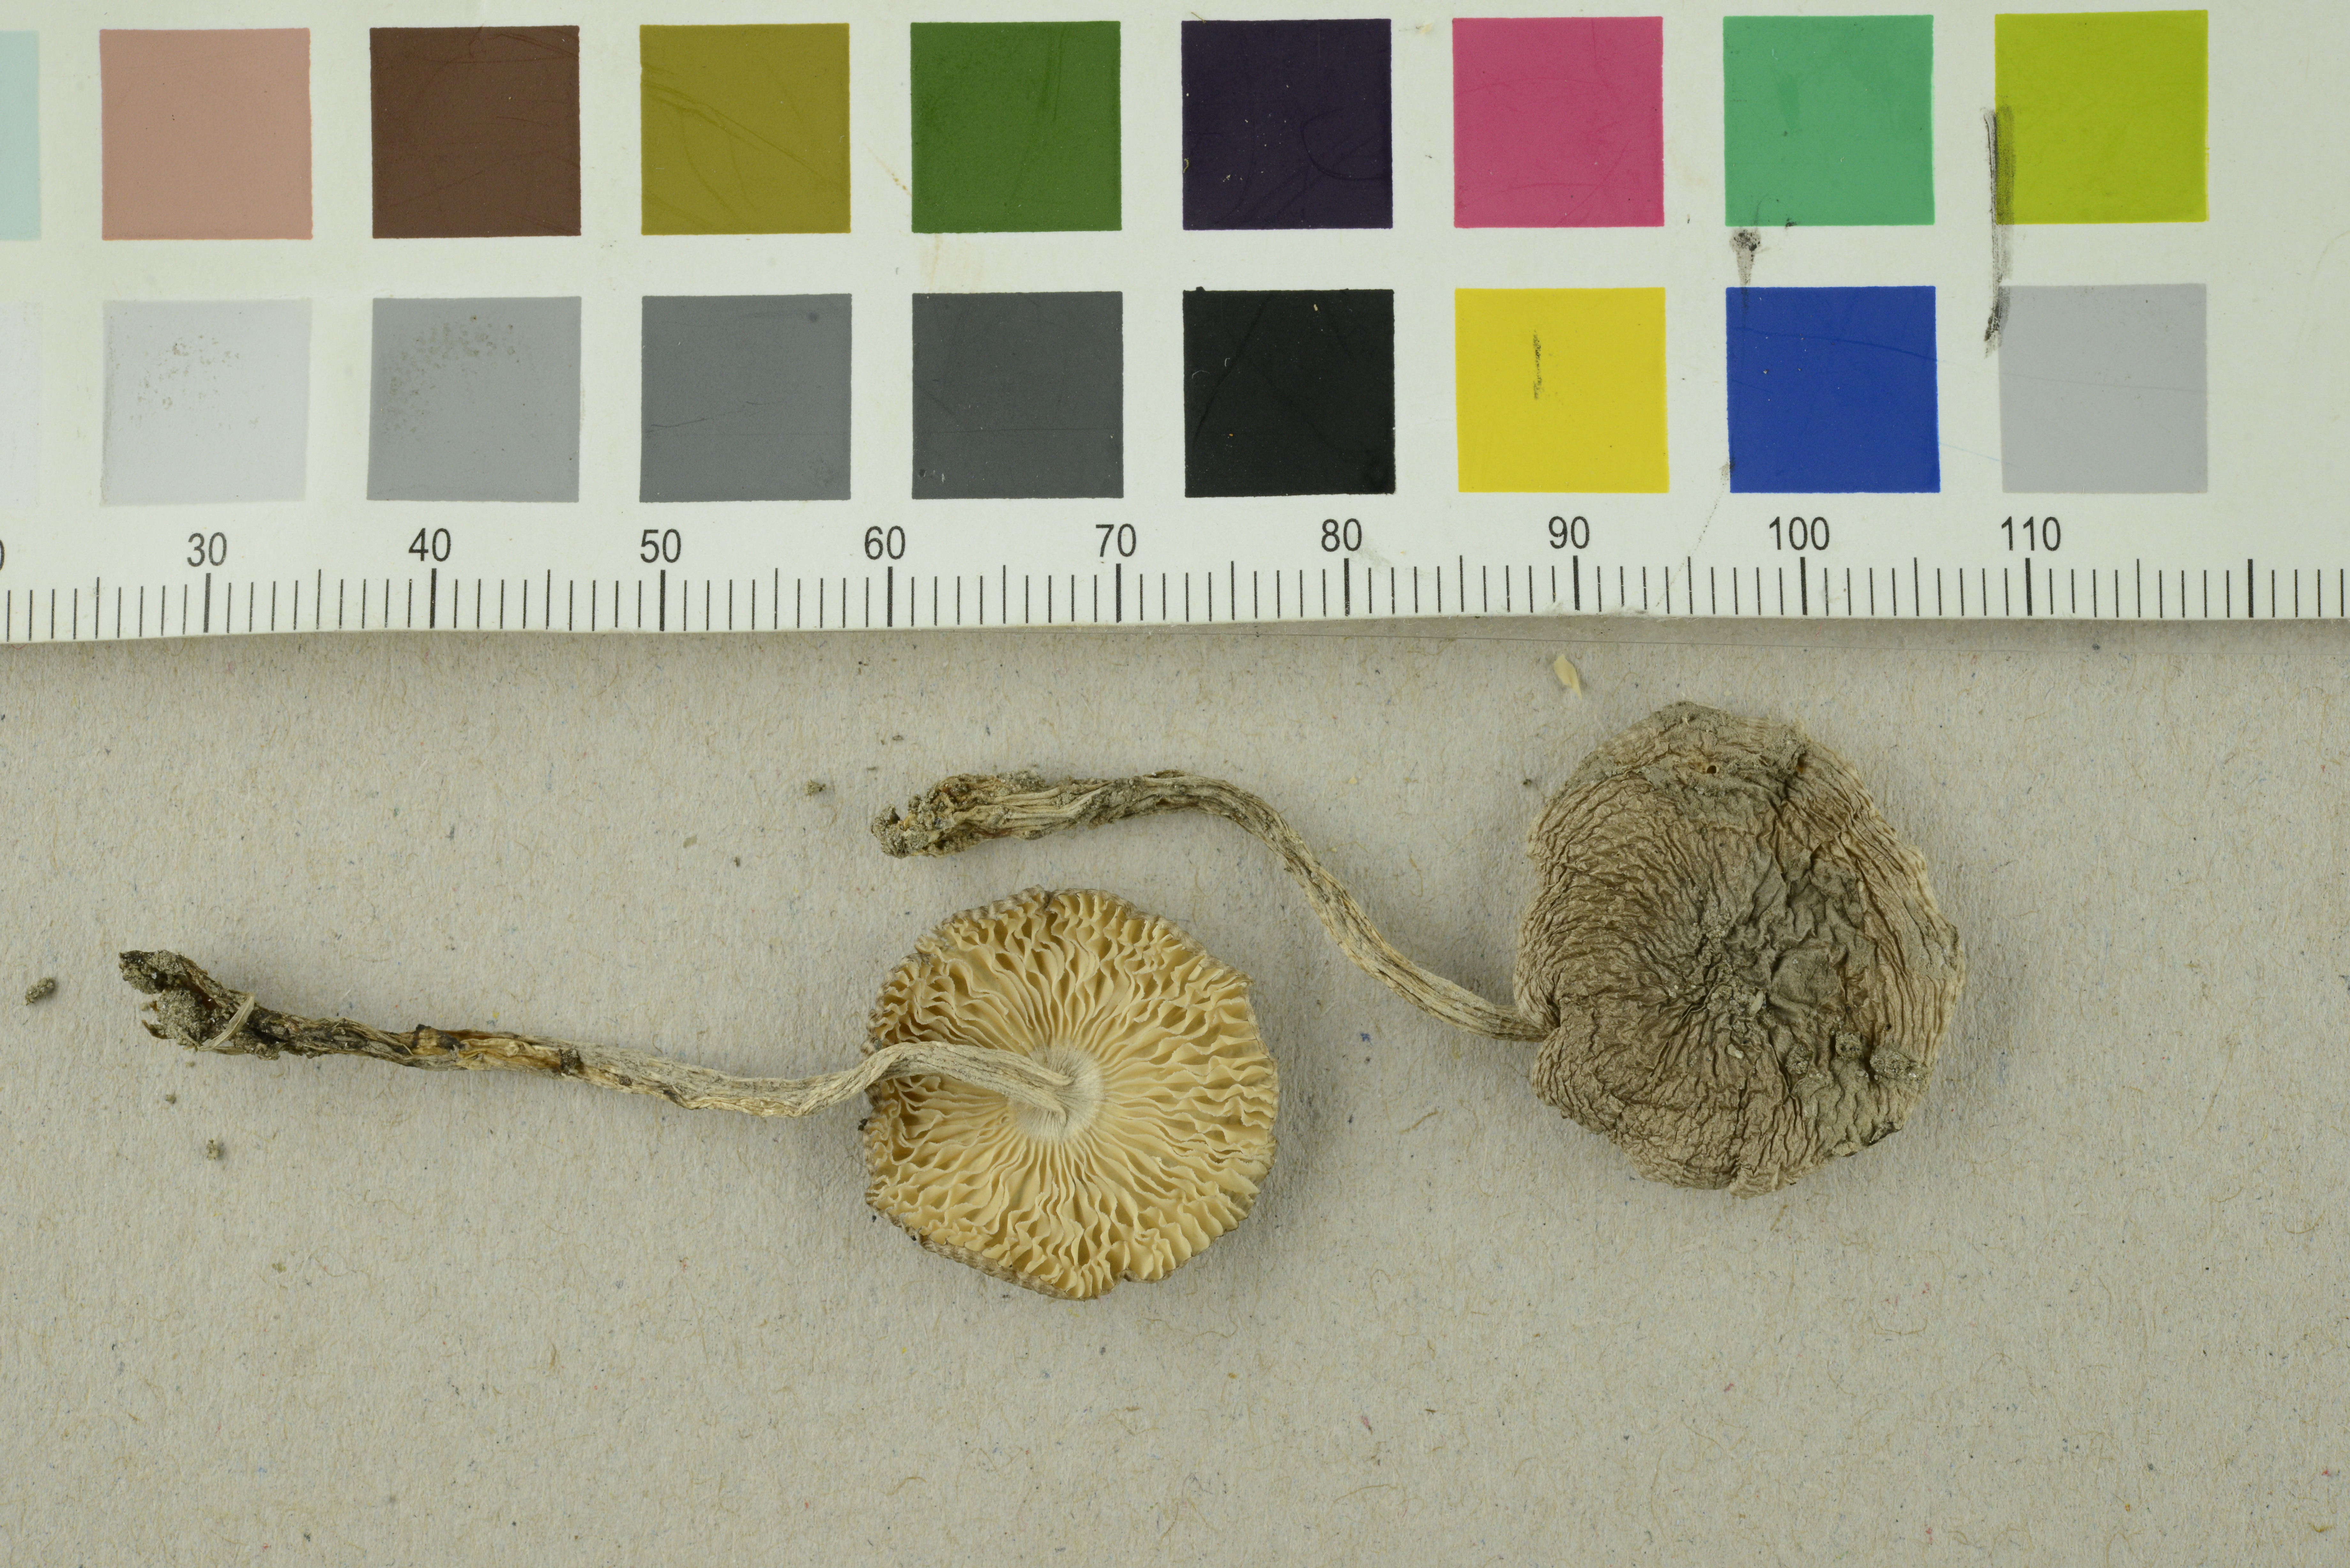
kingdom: Fungi
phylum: Basidiomycota
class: Agaricomycetes
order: Agaricales
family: Amanitaceae
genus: Amanita
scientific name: Amanita friabilis
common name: Fragile amanita
